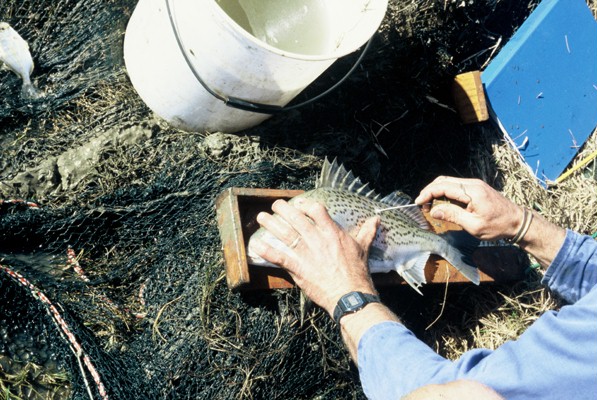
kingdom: Animalia
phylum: Chordata
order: Perciformes
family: Haemulidae
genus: Pomadasys
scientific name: Pomadasys commersonnii
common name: Smallspotted grunter
